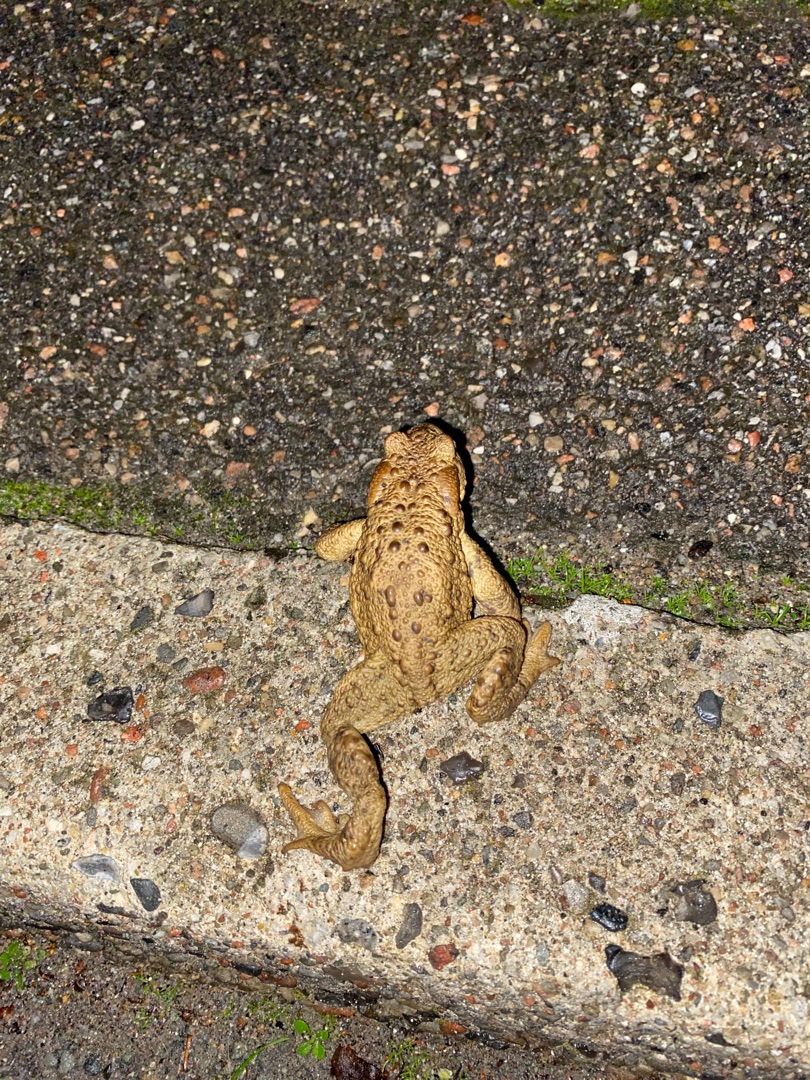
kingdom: Animalia
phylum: Chordata
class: Amphibia
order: Anura
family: Bufonidae
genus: Bufo
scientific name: Bufo bufo
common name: Skrubtudse
